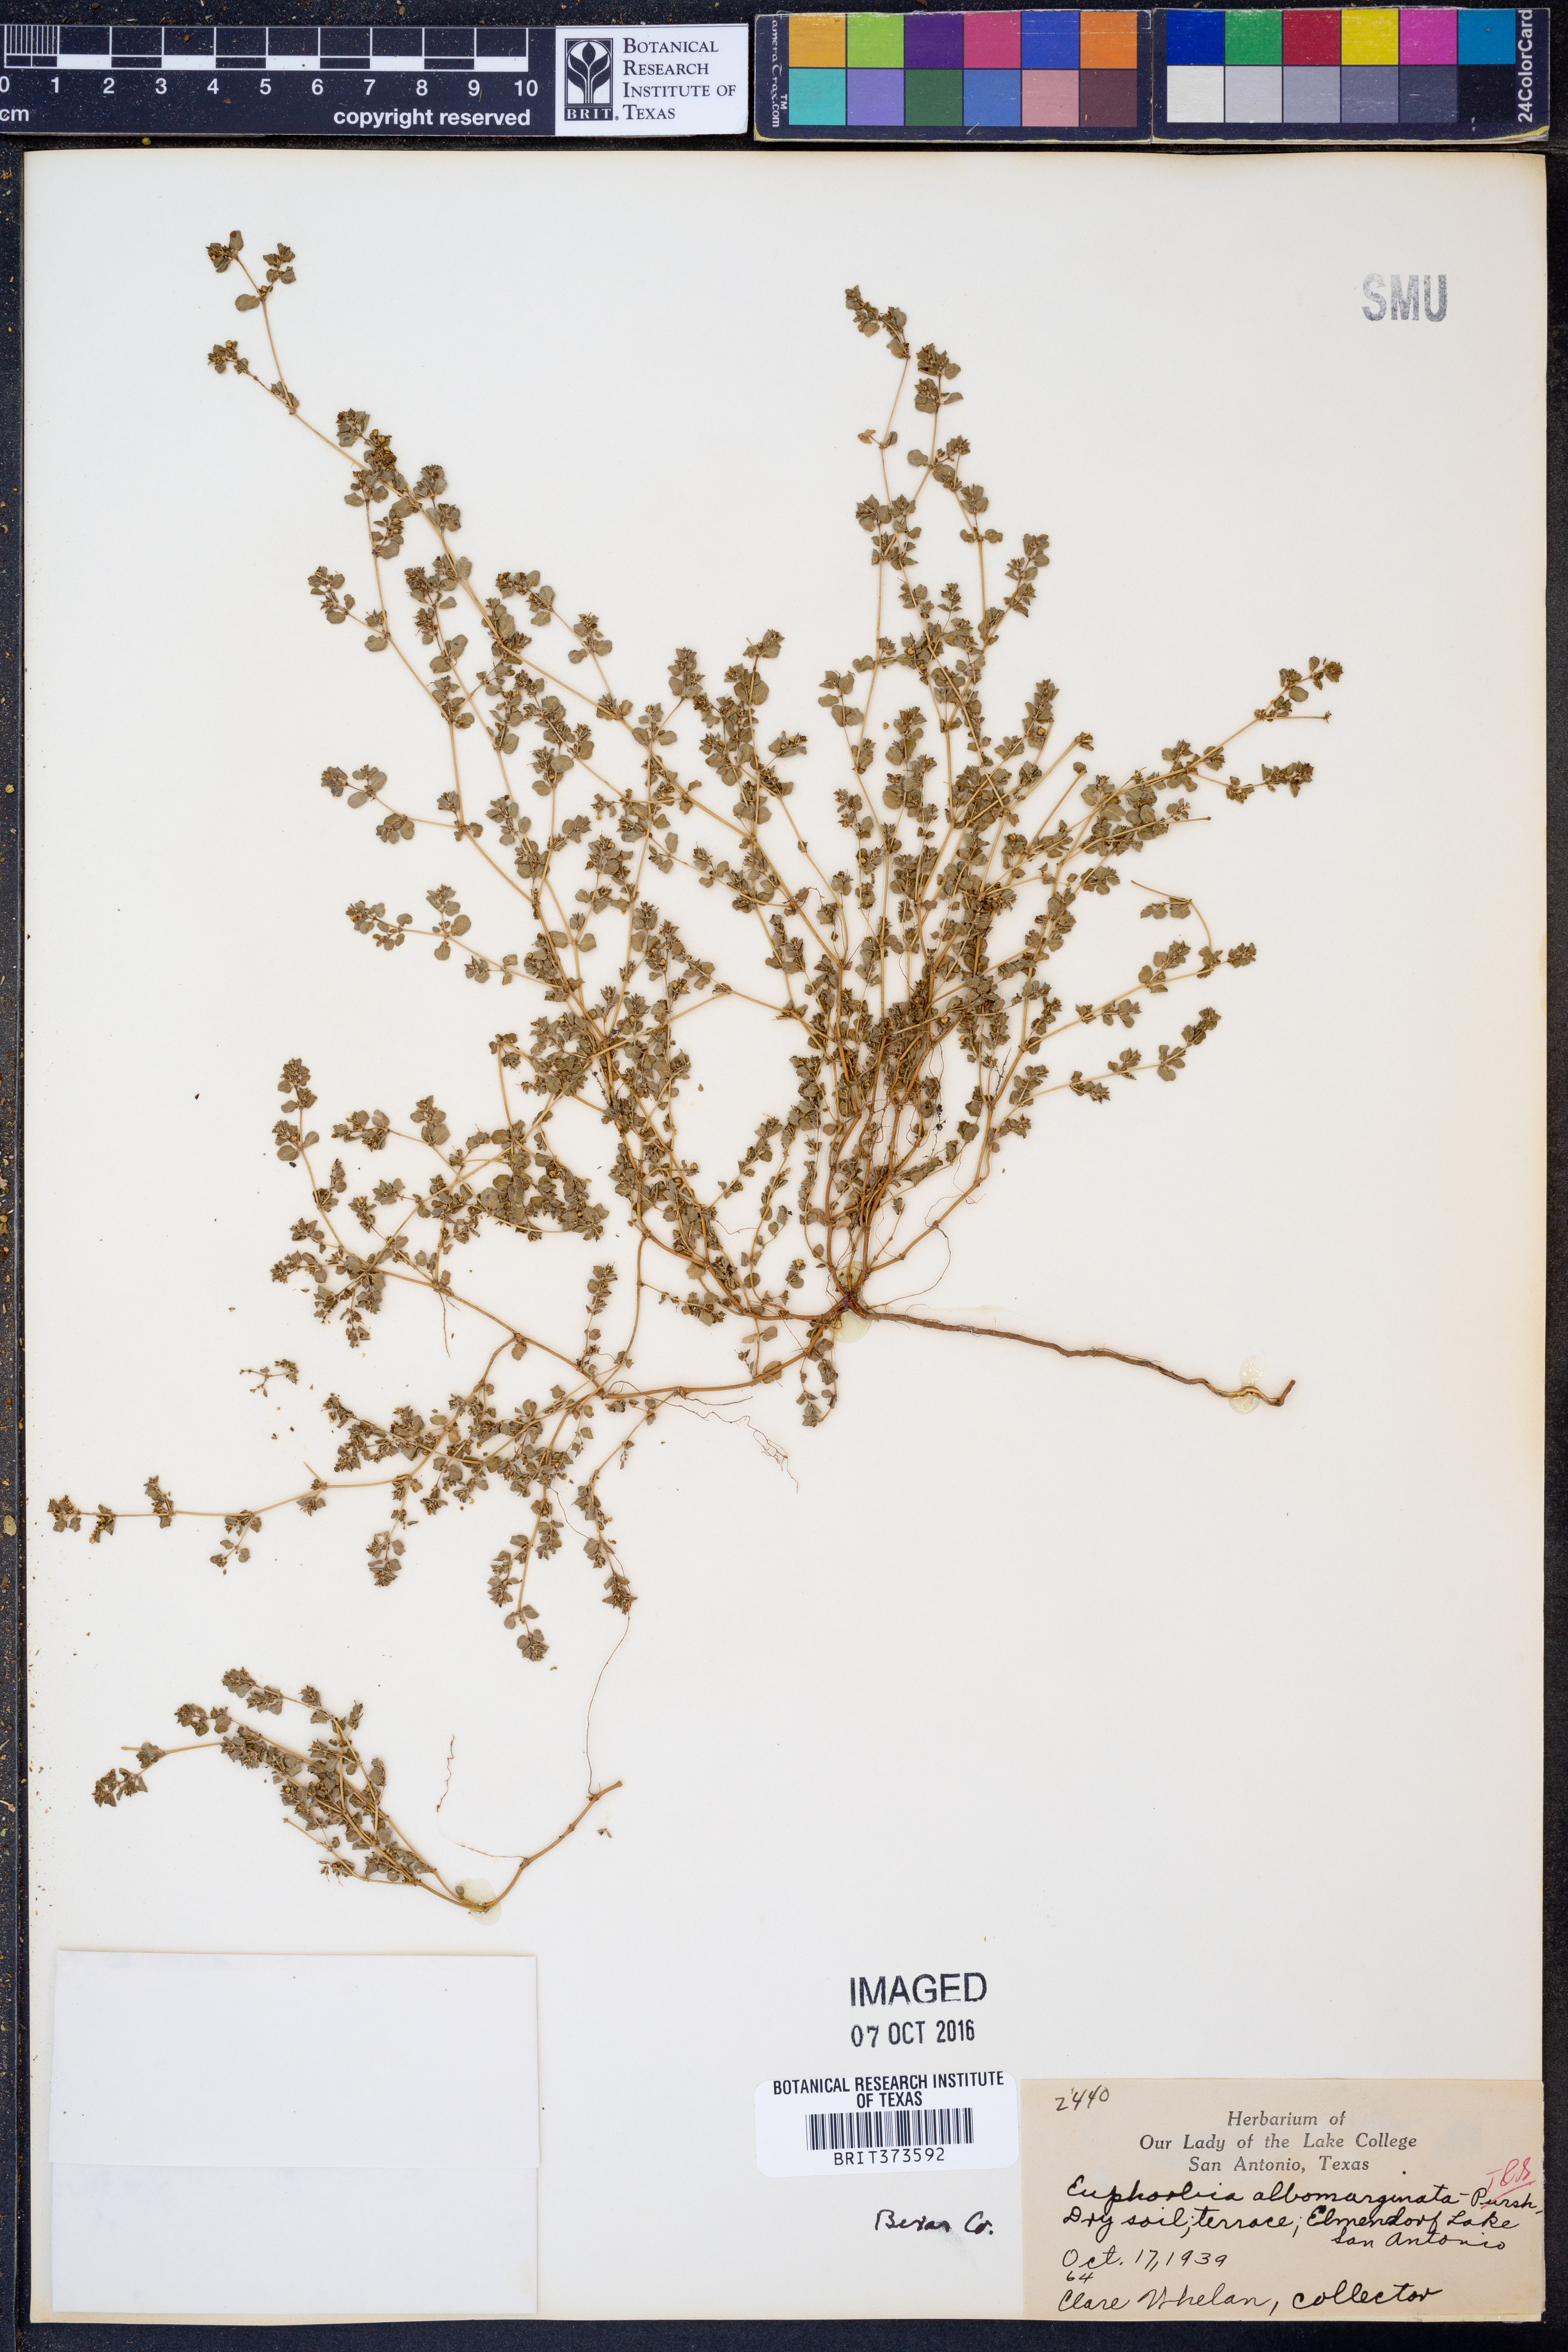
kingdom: Plantae
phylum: Tracheophyta
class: Magnoliopsida
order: Malpighiales
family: Euphorbiaceae
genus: Euphorbia
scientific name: Euphorbia albomarginata
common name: Whitemargin sandmat
